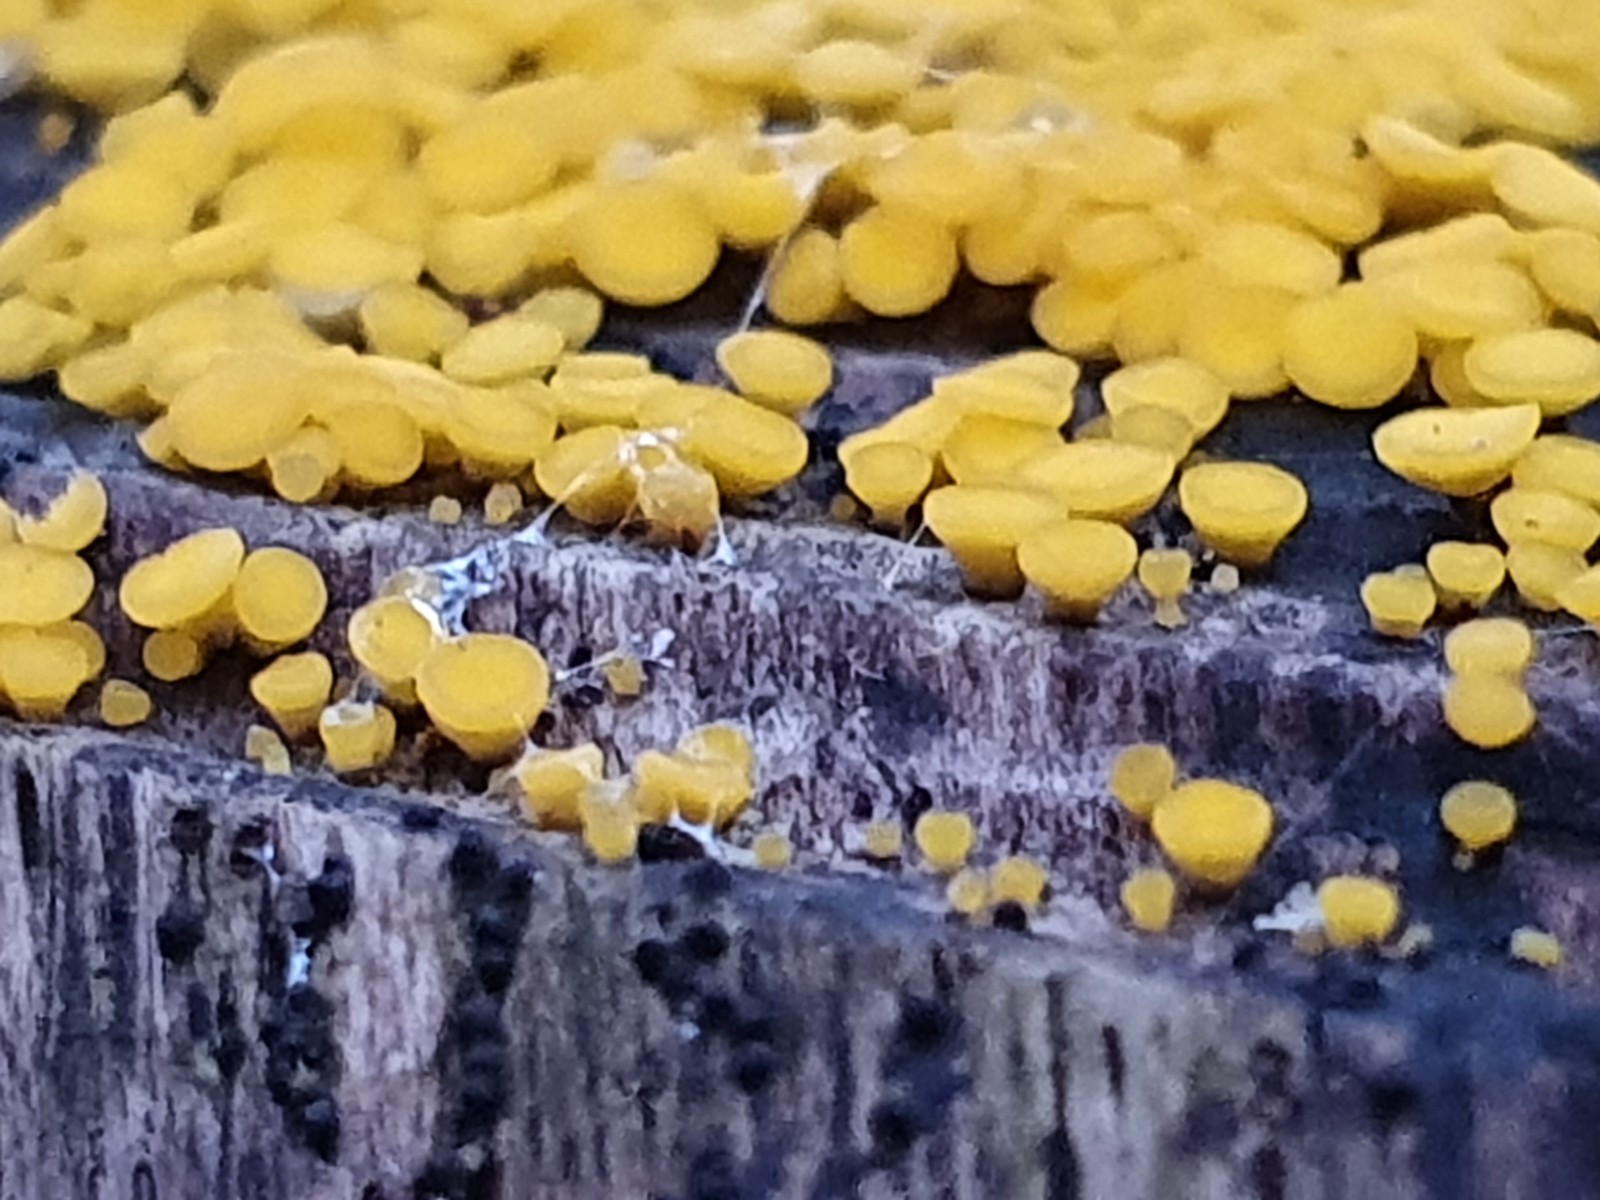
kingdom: Fungi
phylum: Ascomycota
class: Leotiomycetes
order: Helotiales
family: Pezizellaceae
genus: Calycina
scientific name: Calycina citrina
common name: almindelig gulskive
